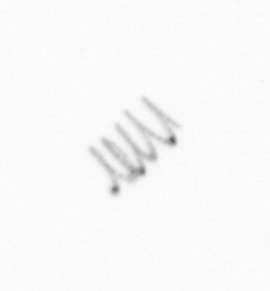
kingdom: Chromista
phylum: Ochrophyta
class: Bacillariophyceae
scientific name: Bacillariophyceae
